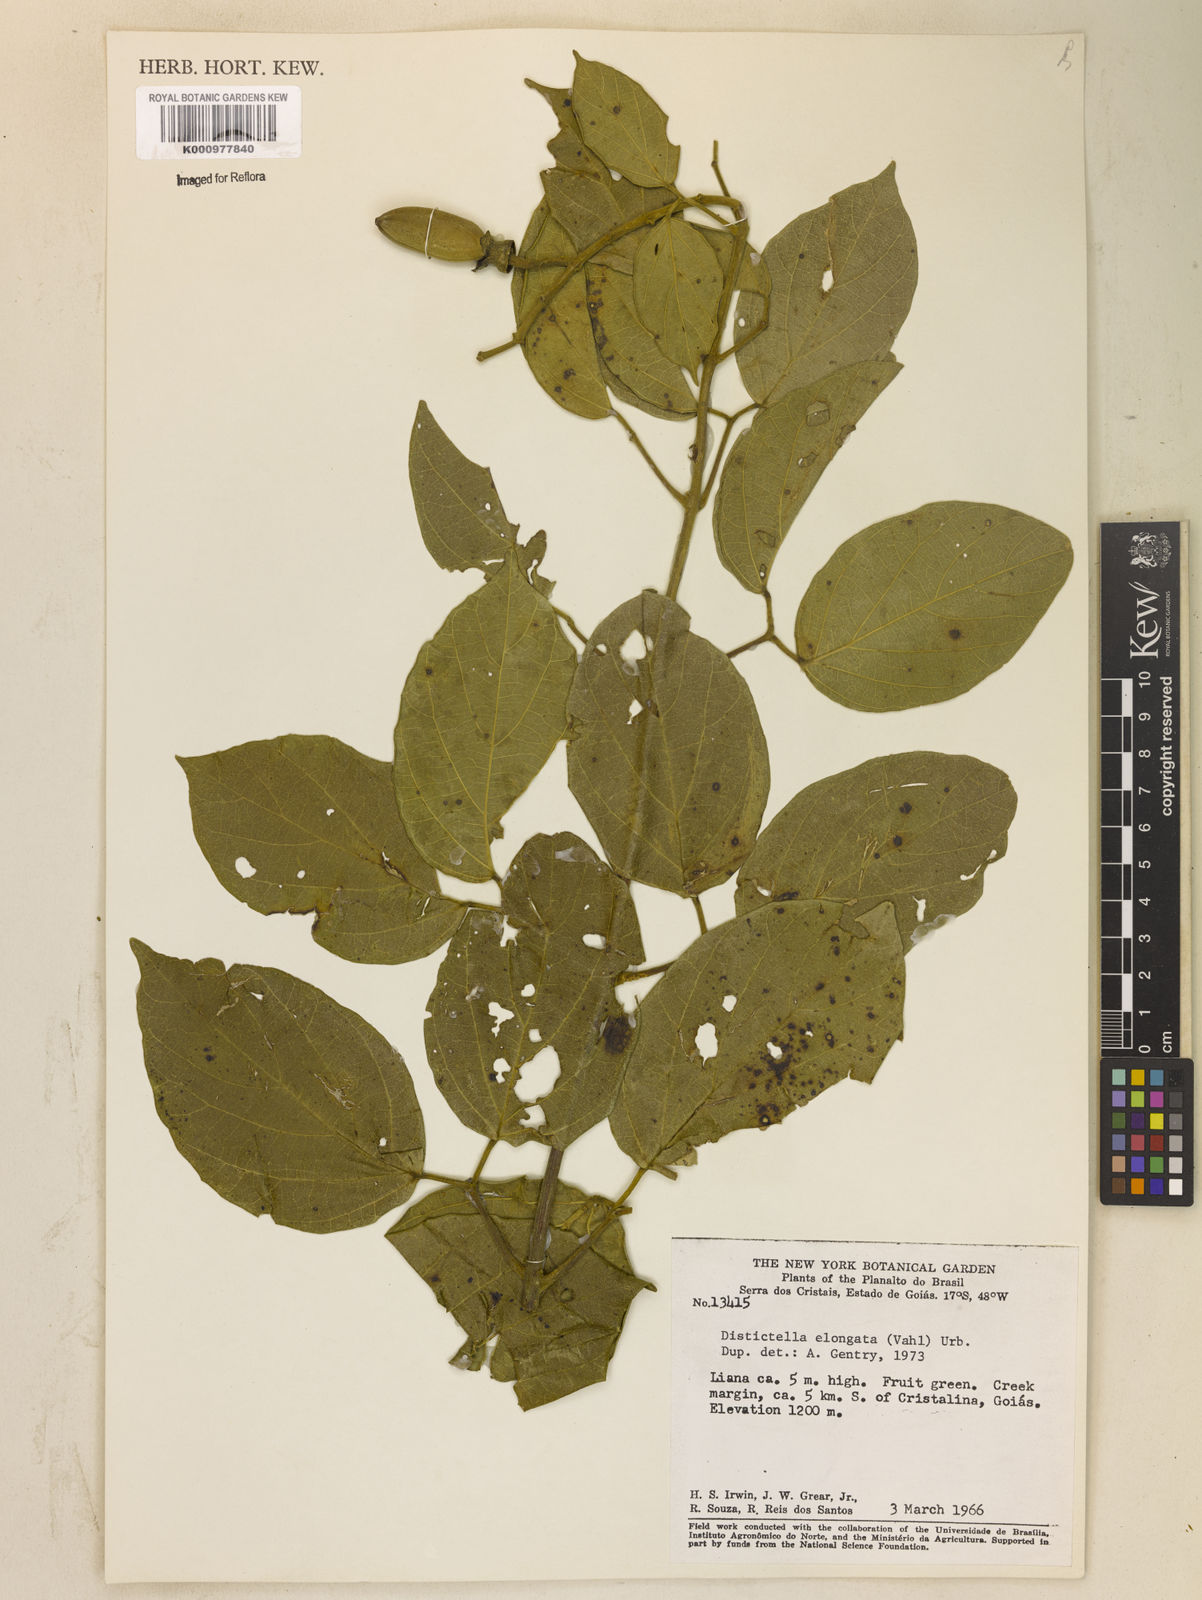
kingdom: Plantae
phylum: Tracheophyta
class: Magnoliopsida
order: Lamiales
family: Bignoniaceae
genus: Amphilophium
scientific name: Amphilophium elongatum
